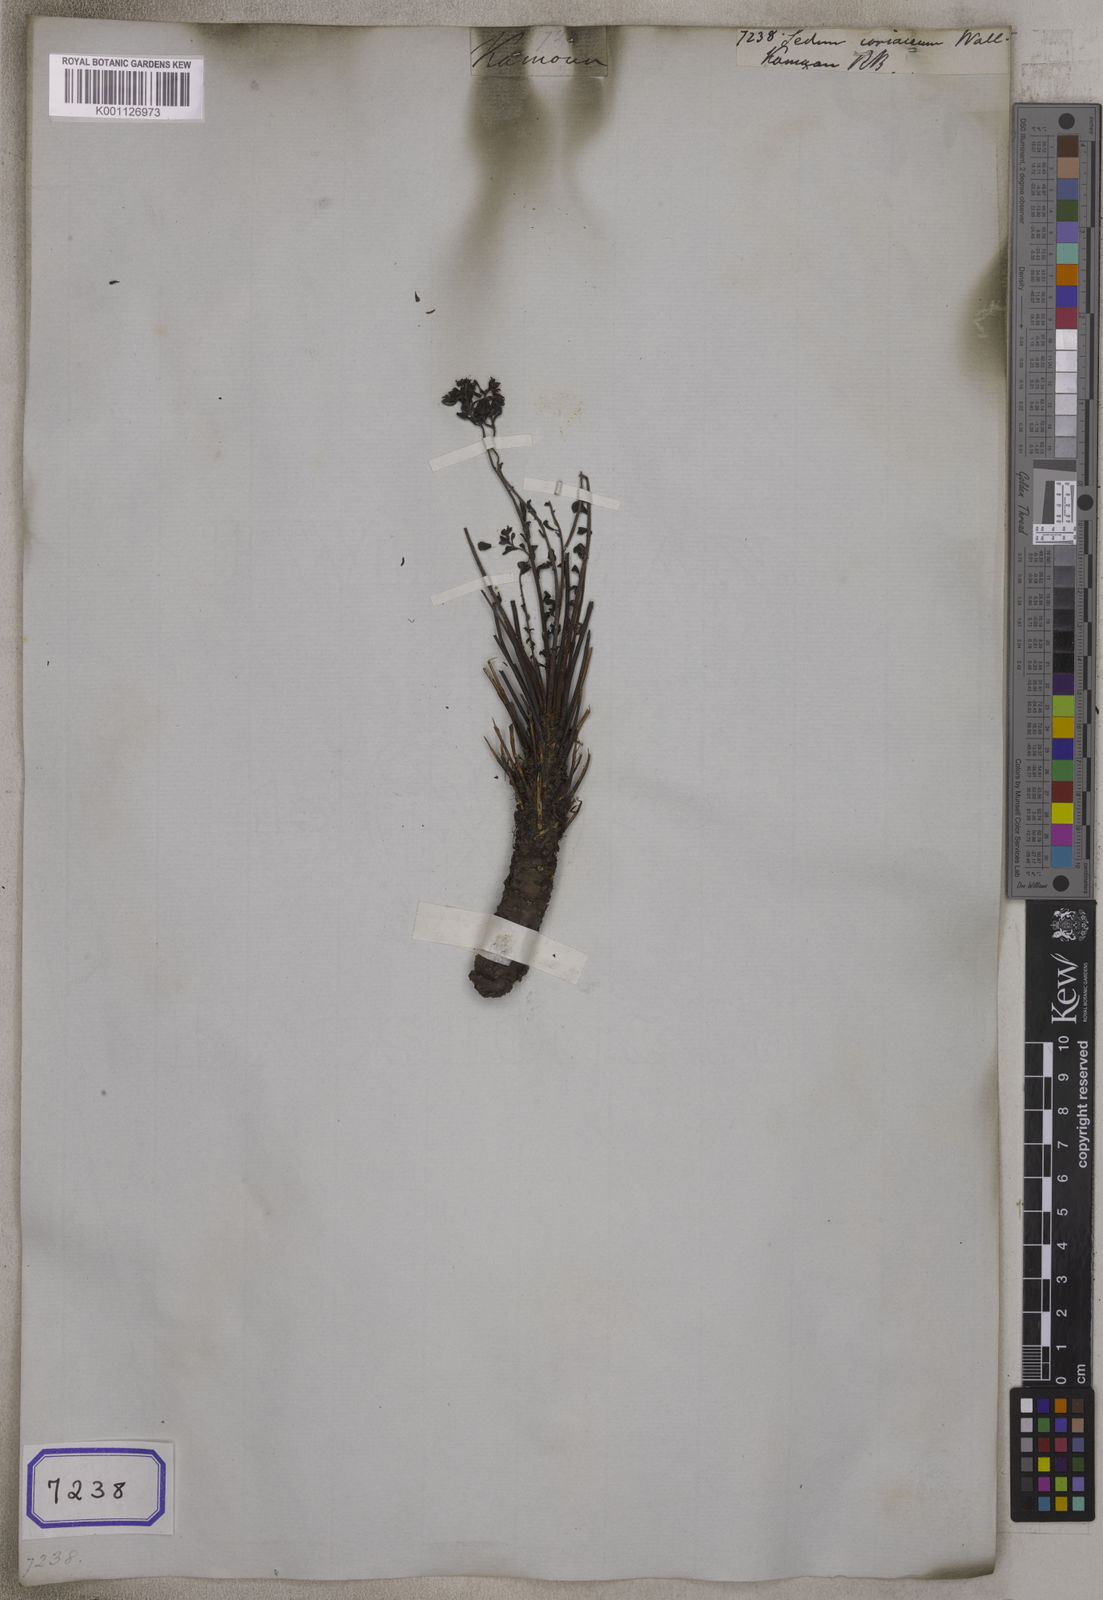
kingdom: Plantae
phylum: Tracheophyta
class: Magnoliopsida
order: Saxifragales
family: Crassulaceae
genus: Sedum
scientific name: Sedum
